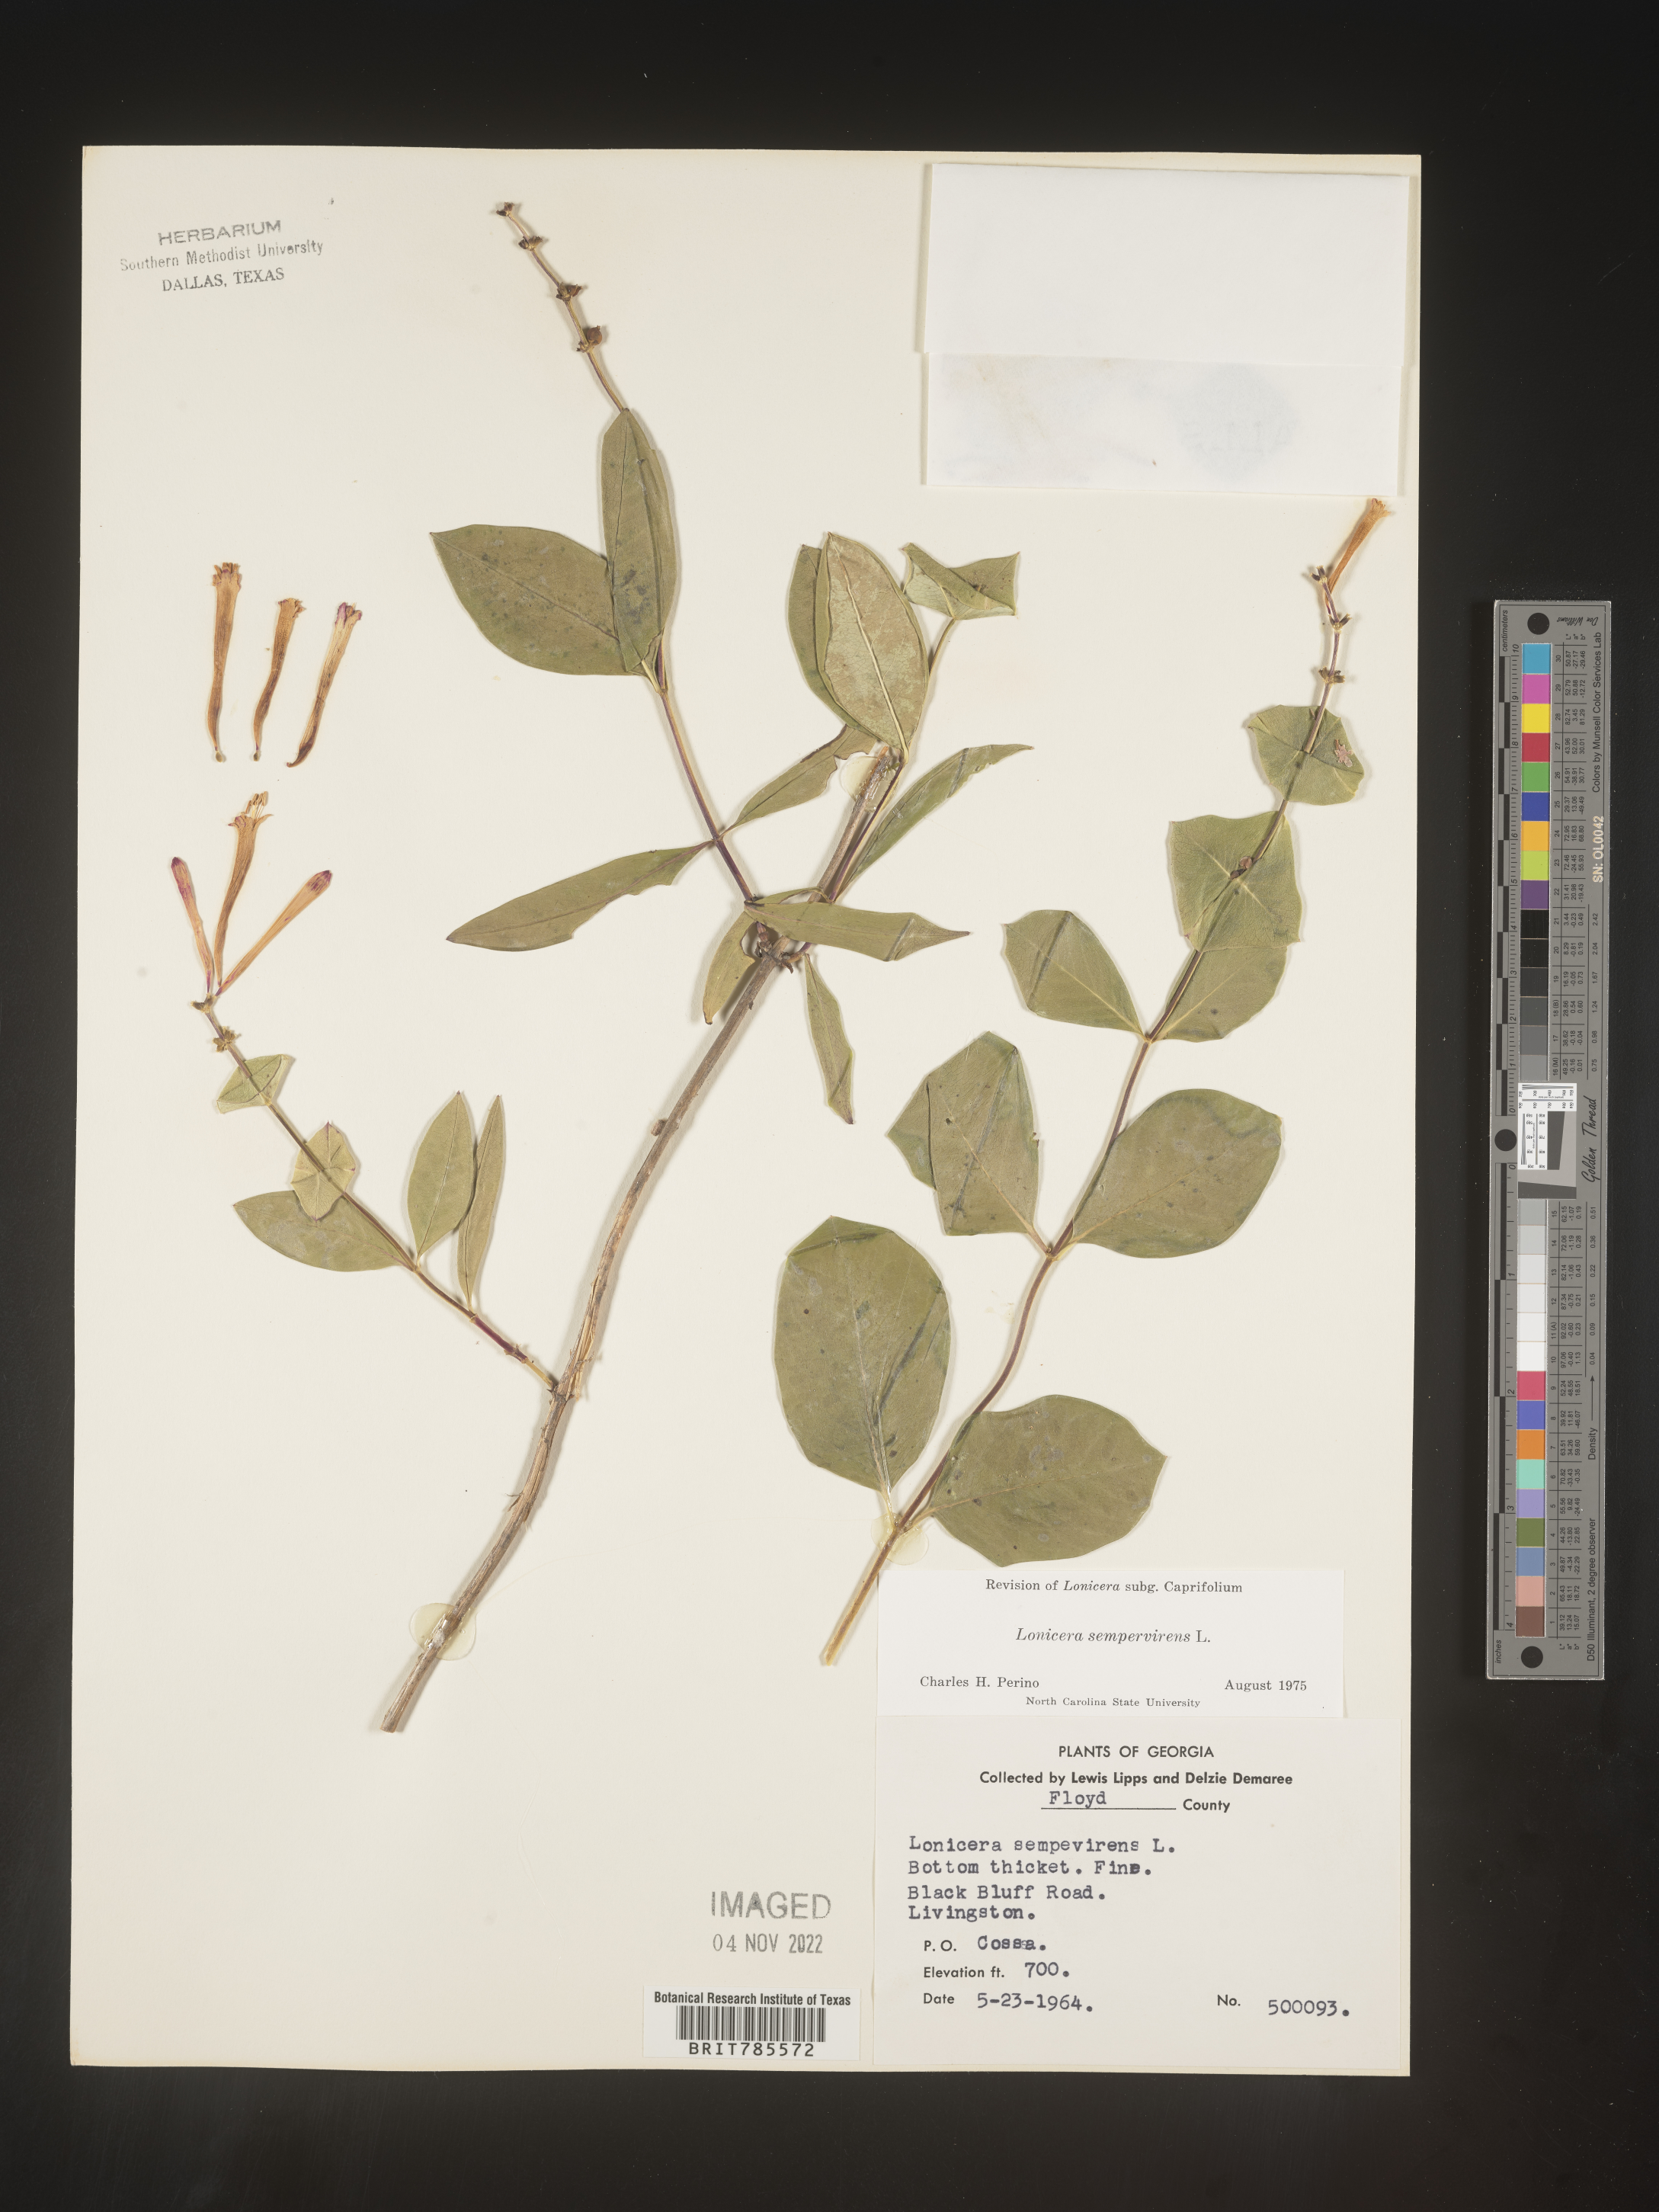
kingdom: Plantae
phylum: Tracheophyta
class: Magnoliopsida
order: Dipsacales
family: Caprifoliaceae
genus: Lonicera
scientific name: Lonicera sempervirens
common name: Coral honeysuckle
